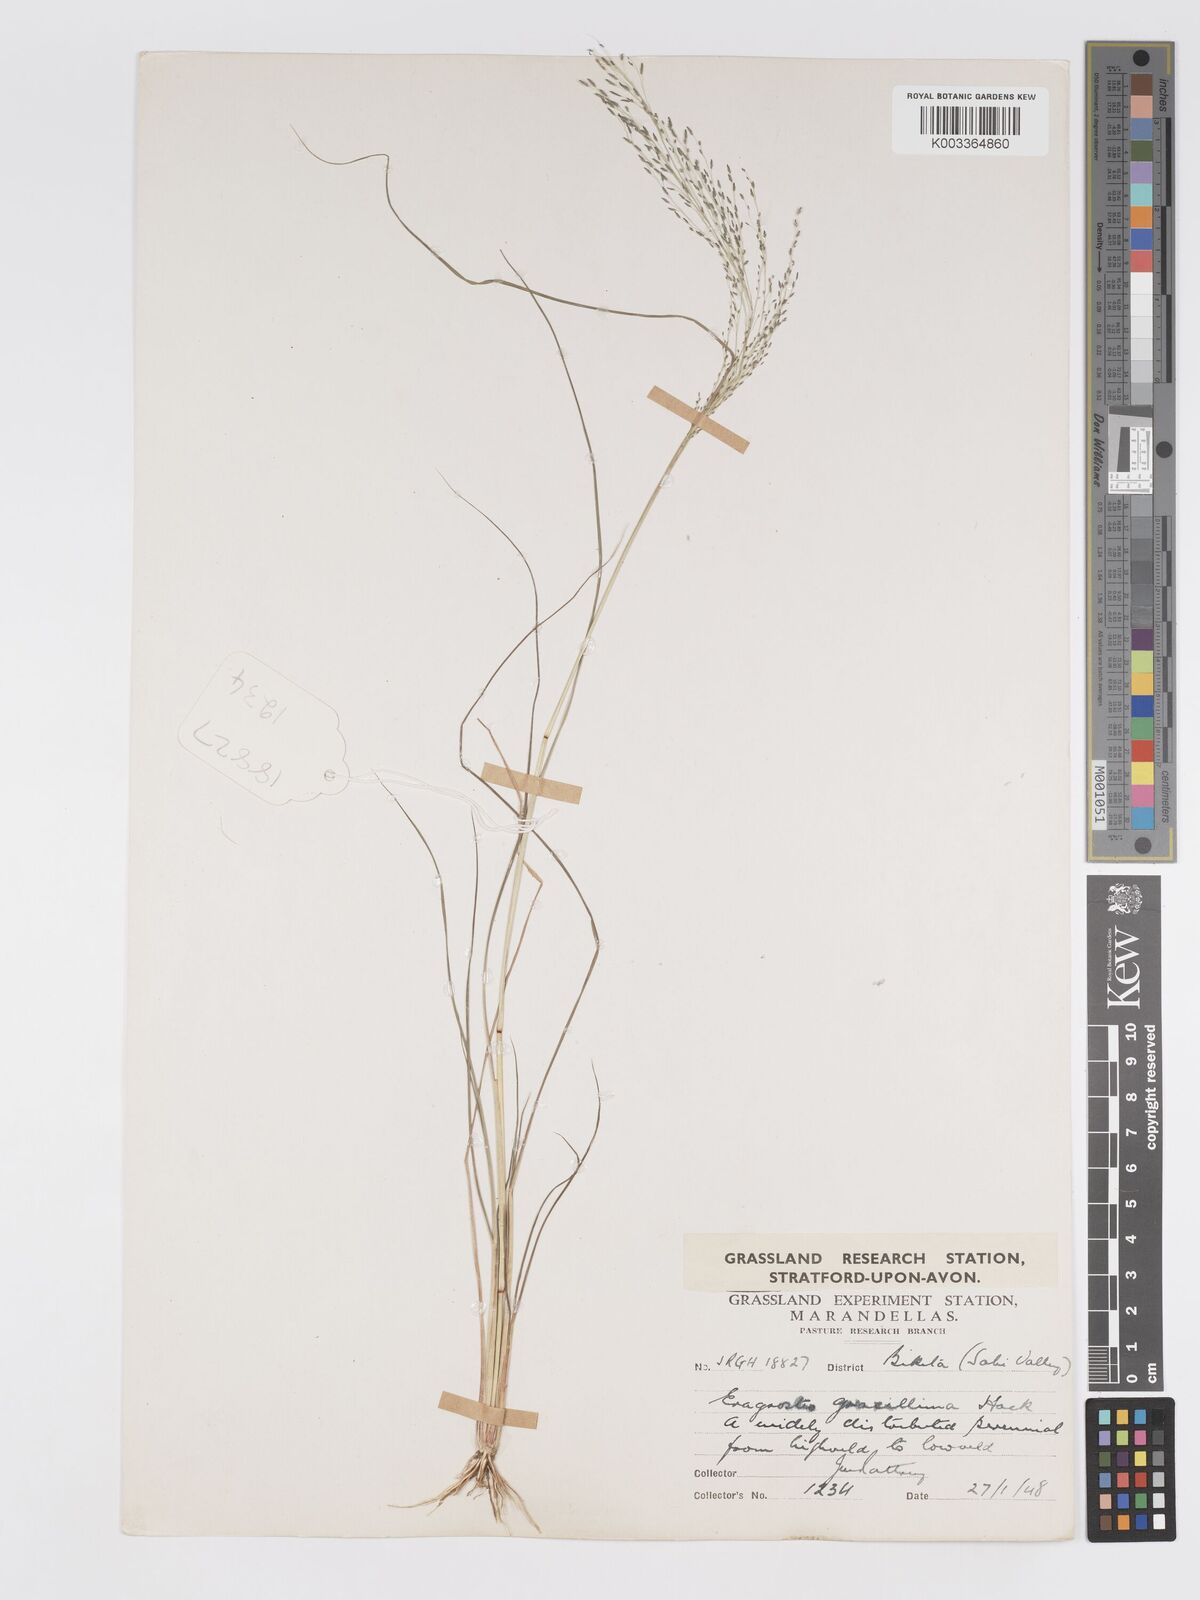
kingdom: Plantae
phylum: Tracheophyta
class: Liliopsida
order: Poales
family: Poaceae
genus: Eragrostis
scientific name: Eragrostis aethiopica
